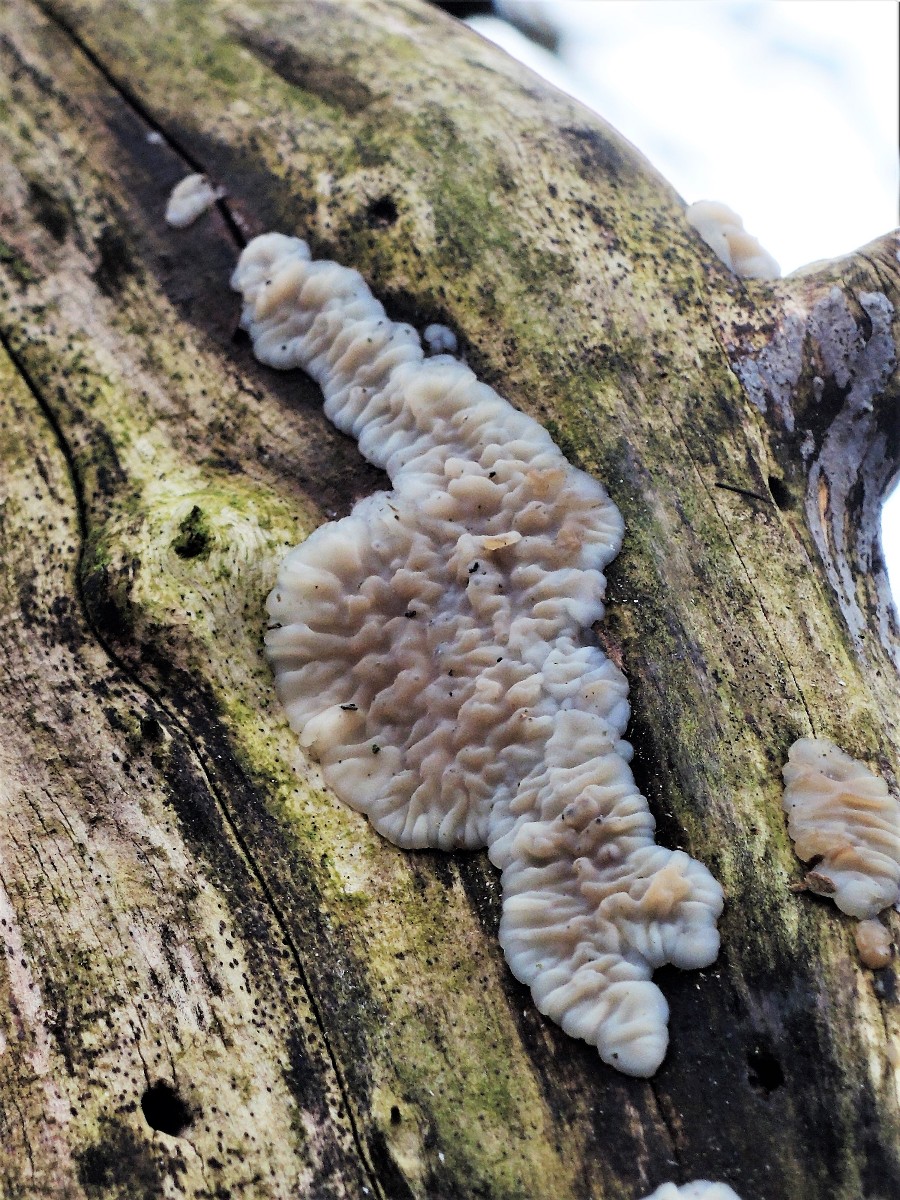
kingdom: Fungi
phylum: Basidiomycota
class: Agaricomycetes
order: Auriculariales
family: Auriculariaceae
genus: Exidia
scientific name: Exidia thuretiana
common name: hvidlig bævretop
